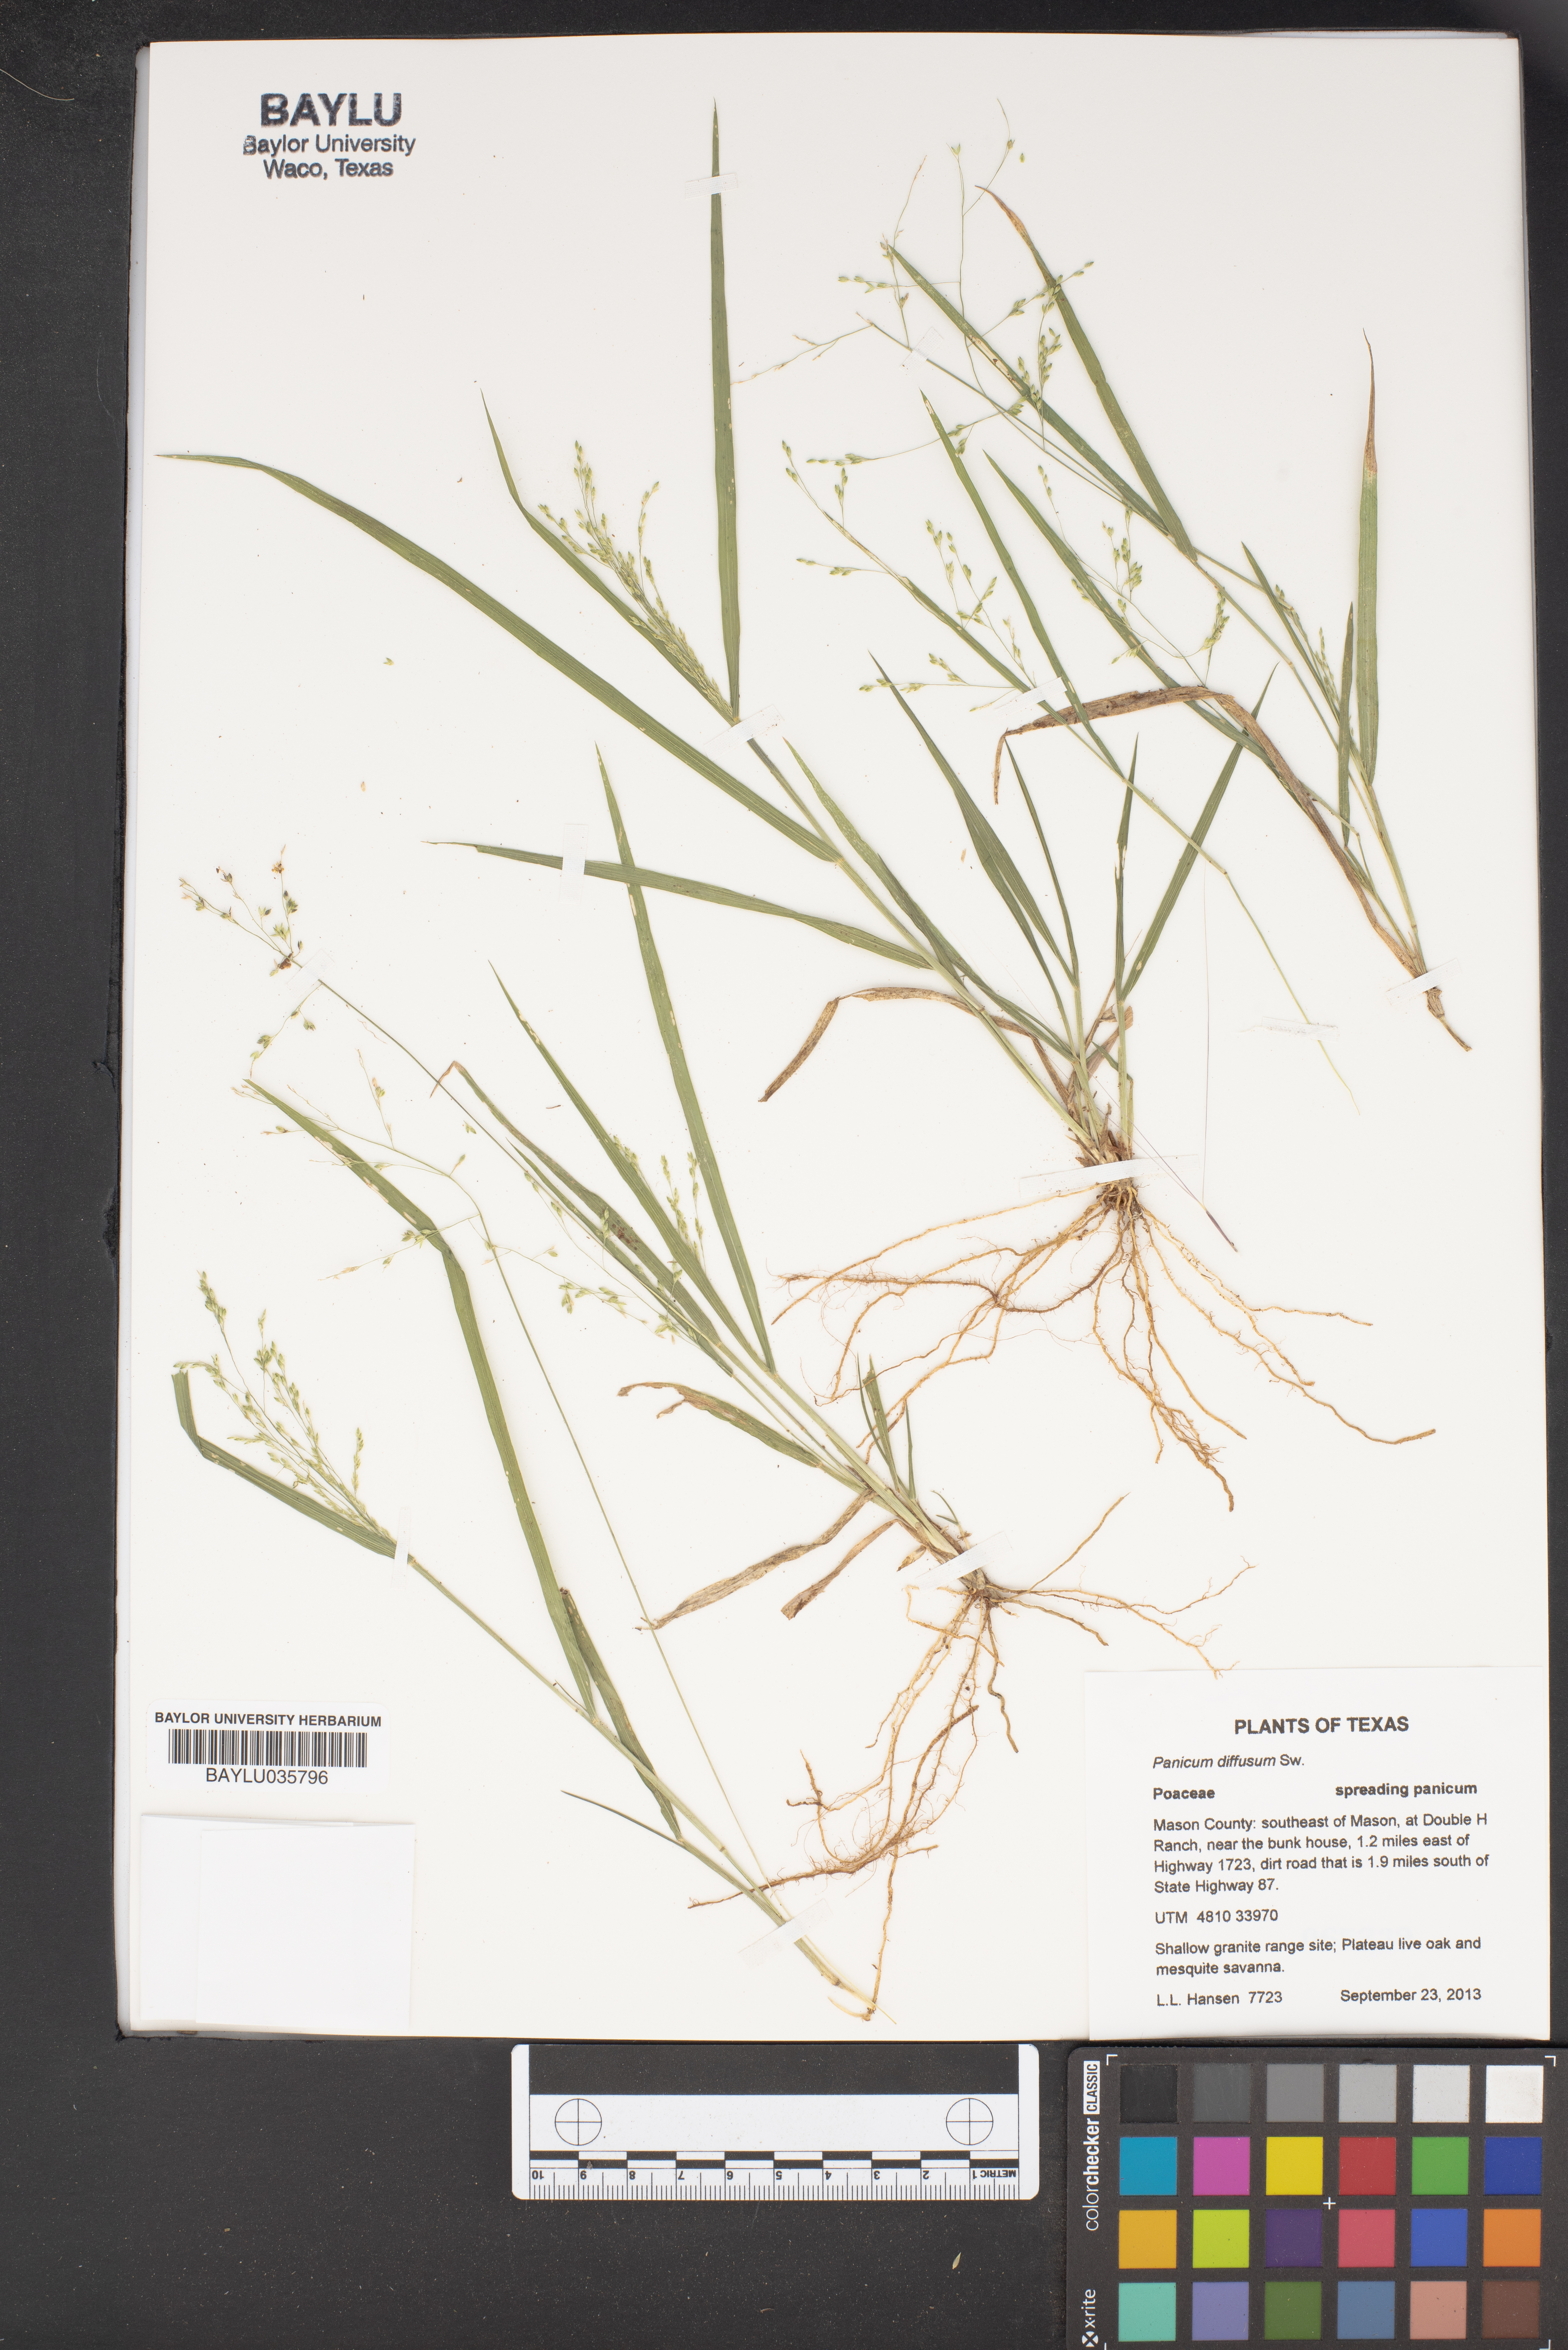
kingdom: Plantae
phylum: Tracheophyta
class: Liliopsida
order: Poales
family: Poaceae
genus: Panicum
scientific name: Panicum diffusum
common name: Spreading panicgrass
